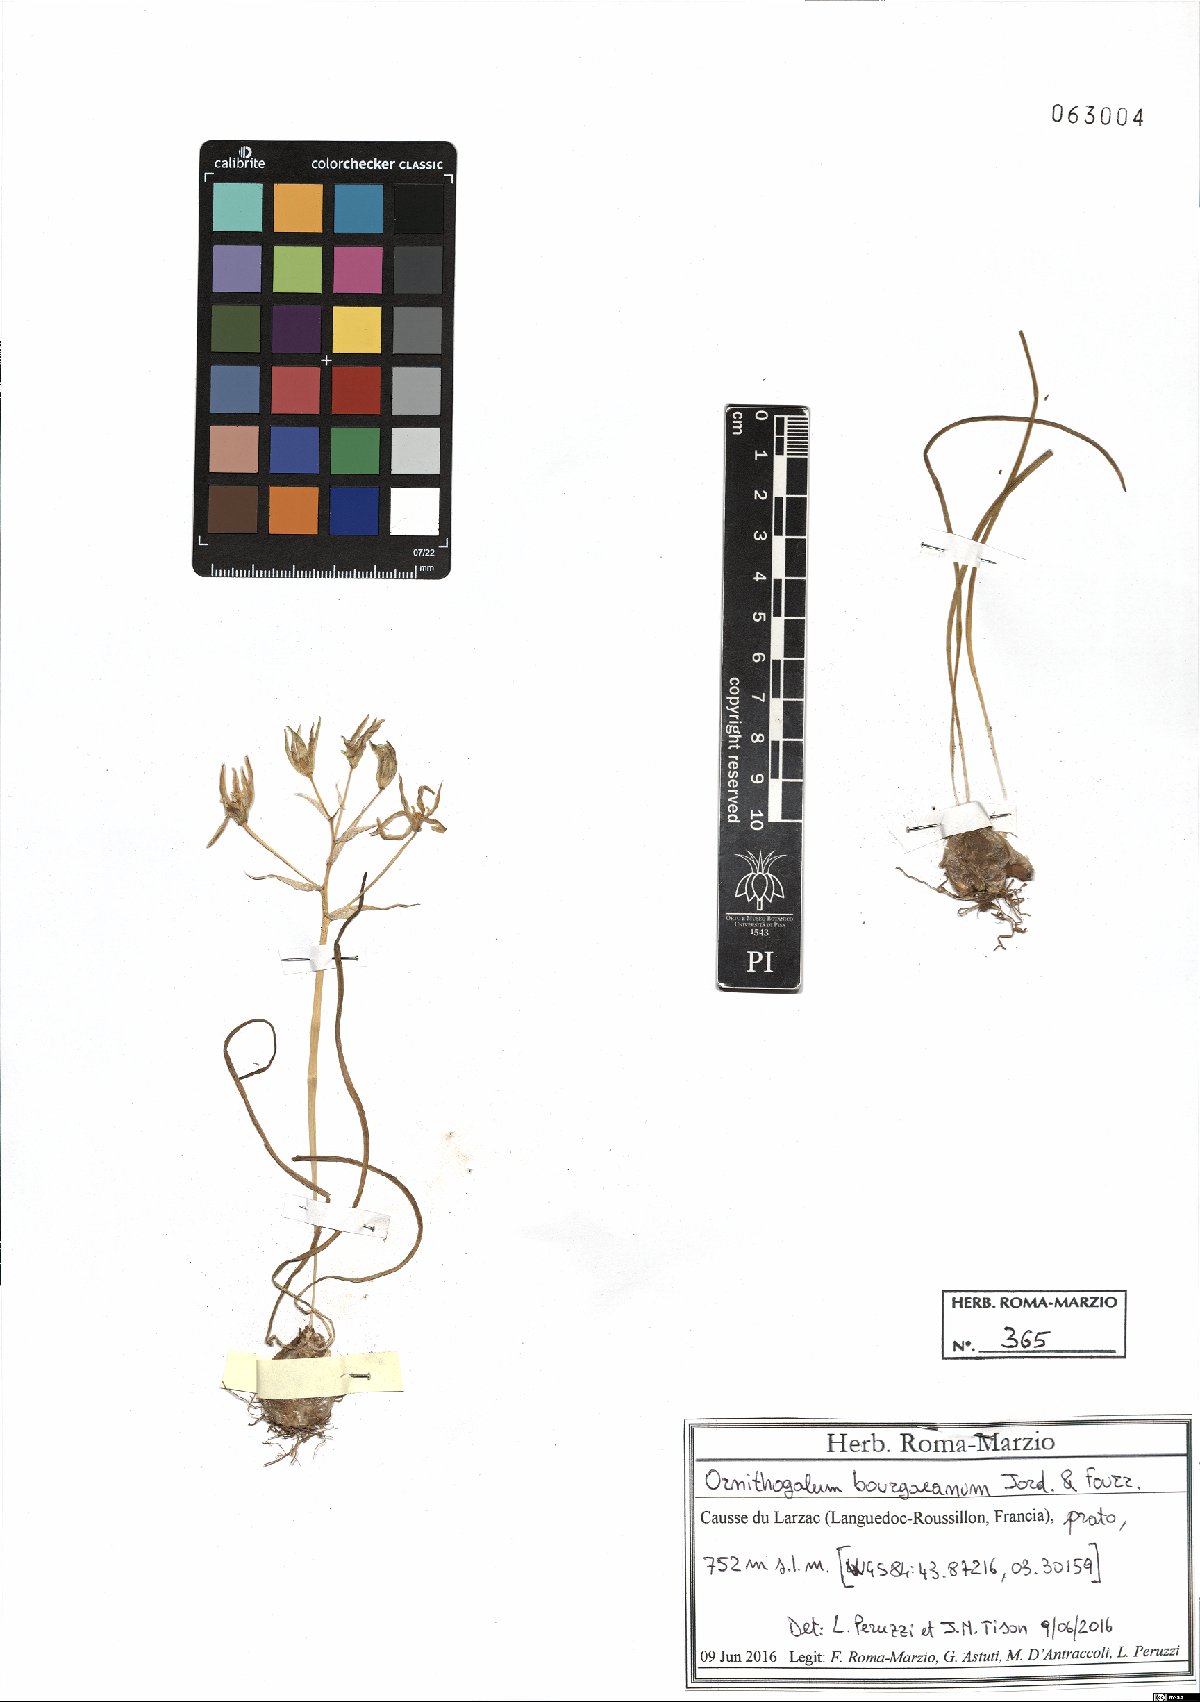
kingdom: Plantae
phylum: Tracheophyta
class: Liliopsida
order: Asparagales
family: Asparagaceae
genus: Ornithogalum
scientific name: Ornithogalum bourgaeanum
